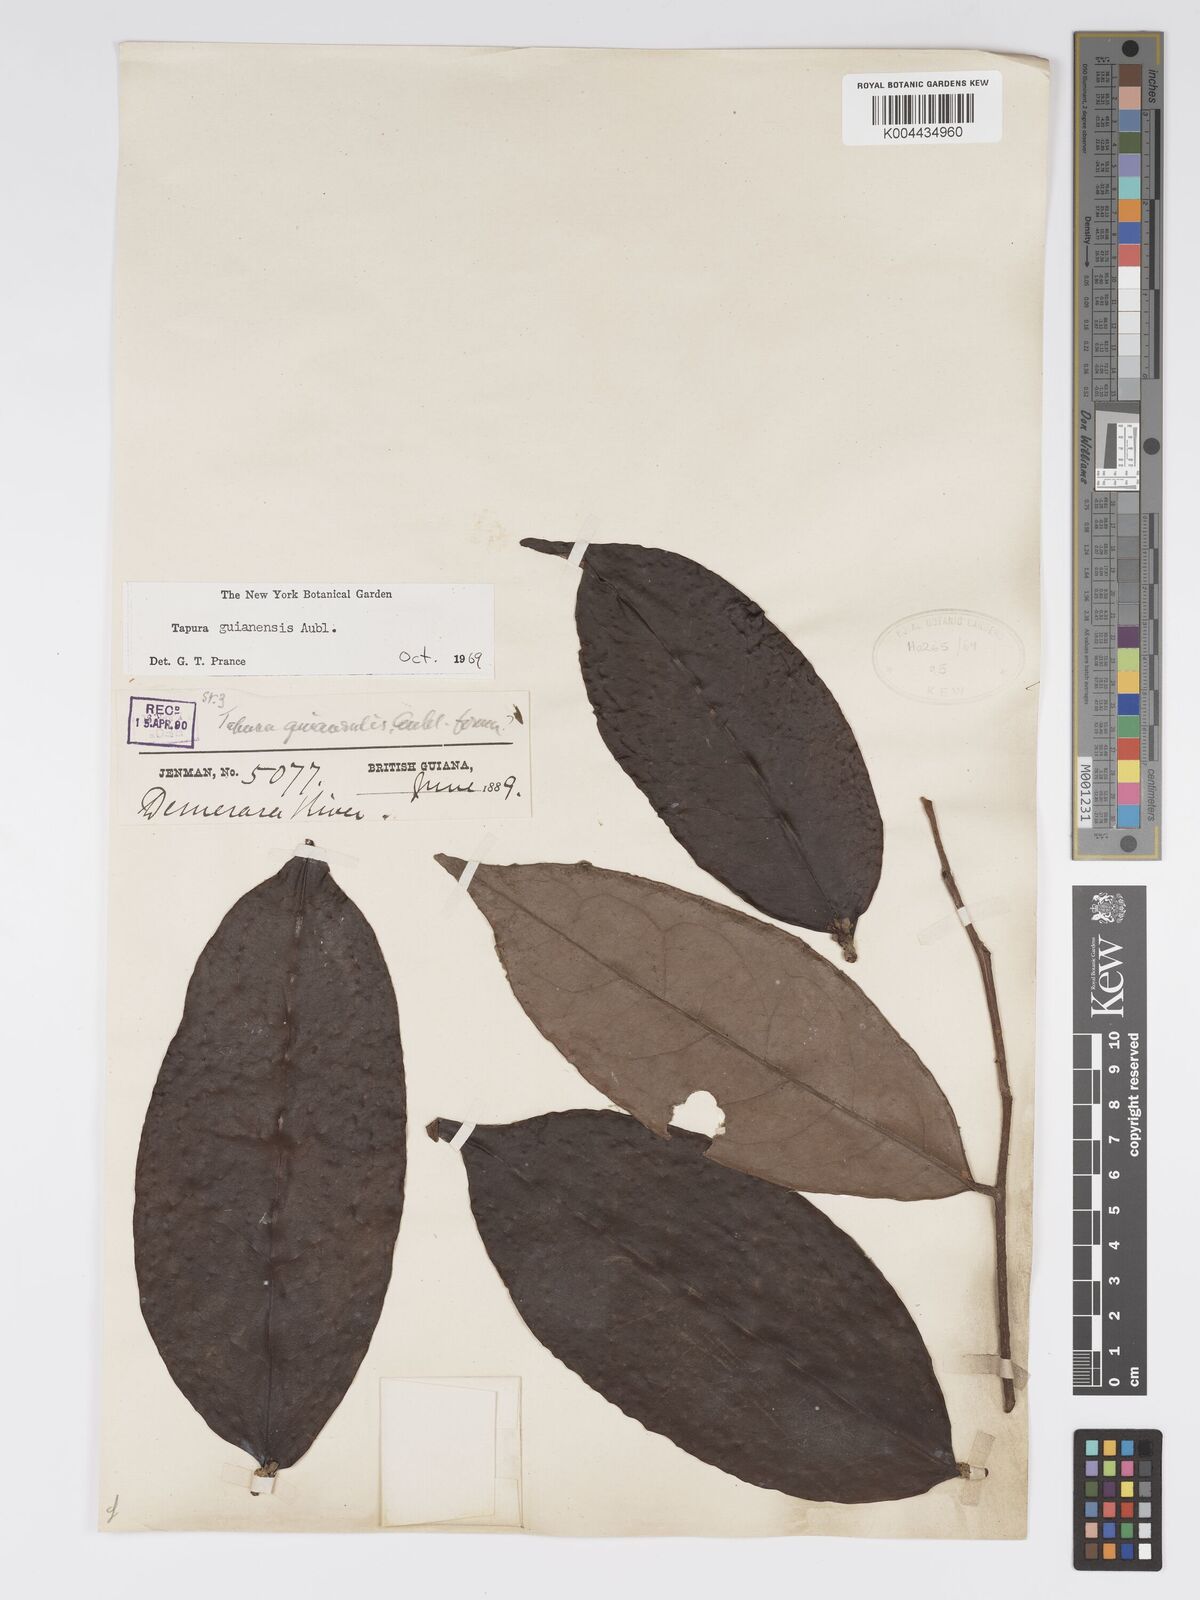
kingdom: Plantae
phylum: Tracheophyta
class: Magnoliopsida
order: Malpighiales
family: Dichapetalaceae
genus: Tapura
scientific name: Tapura guianensis
